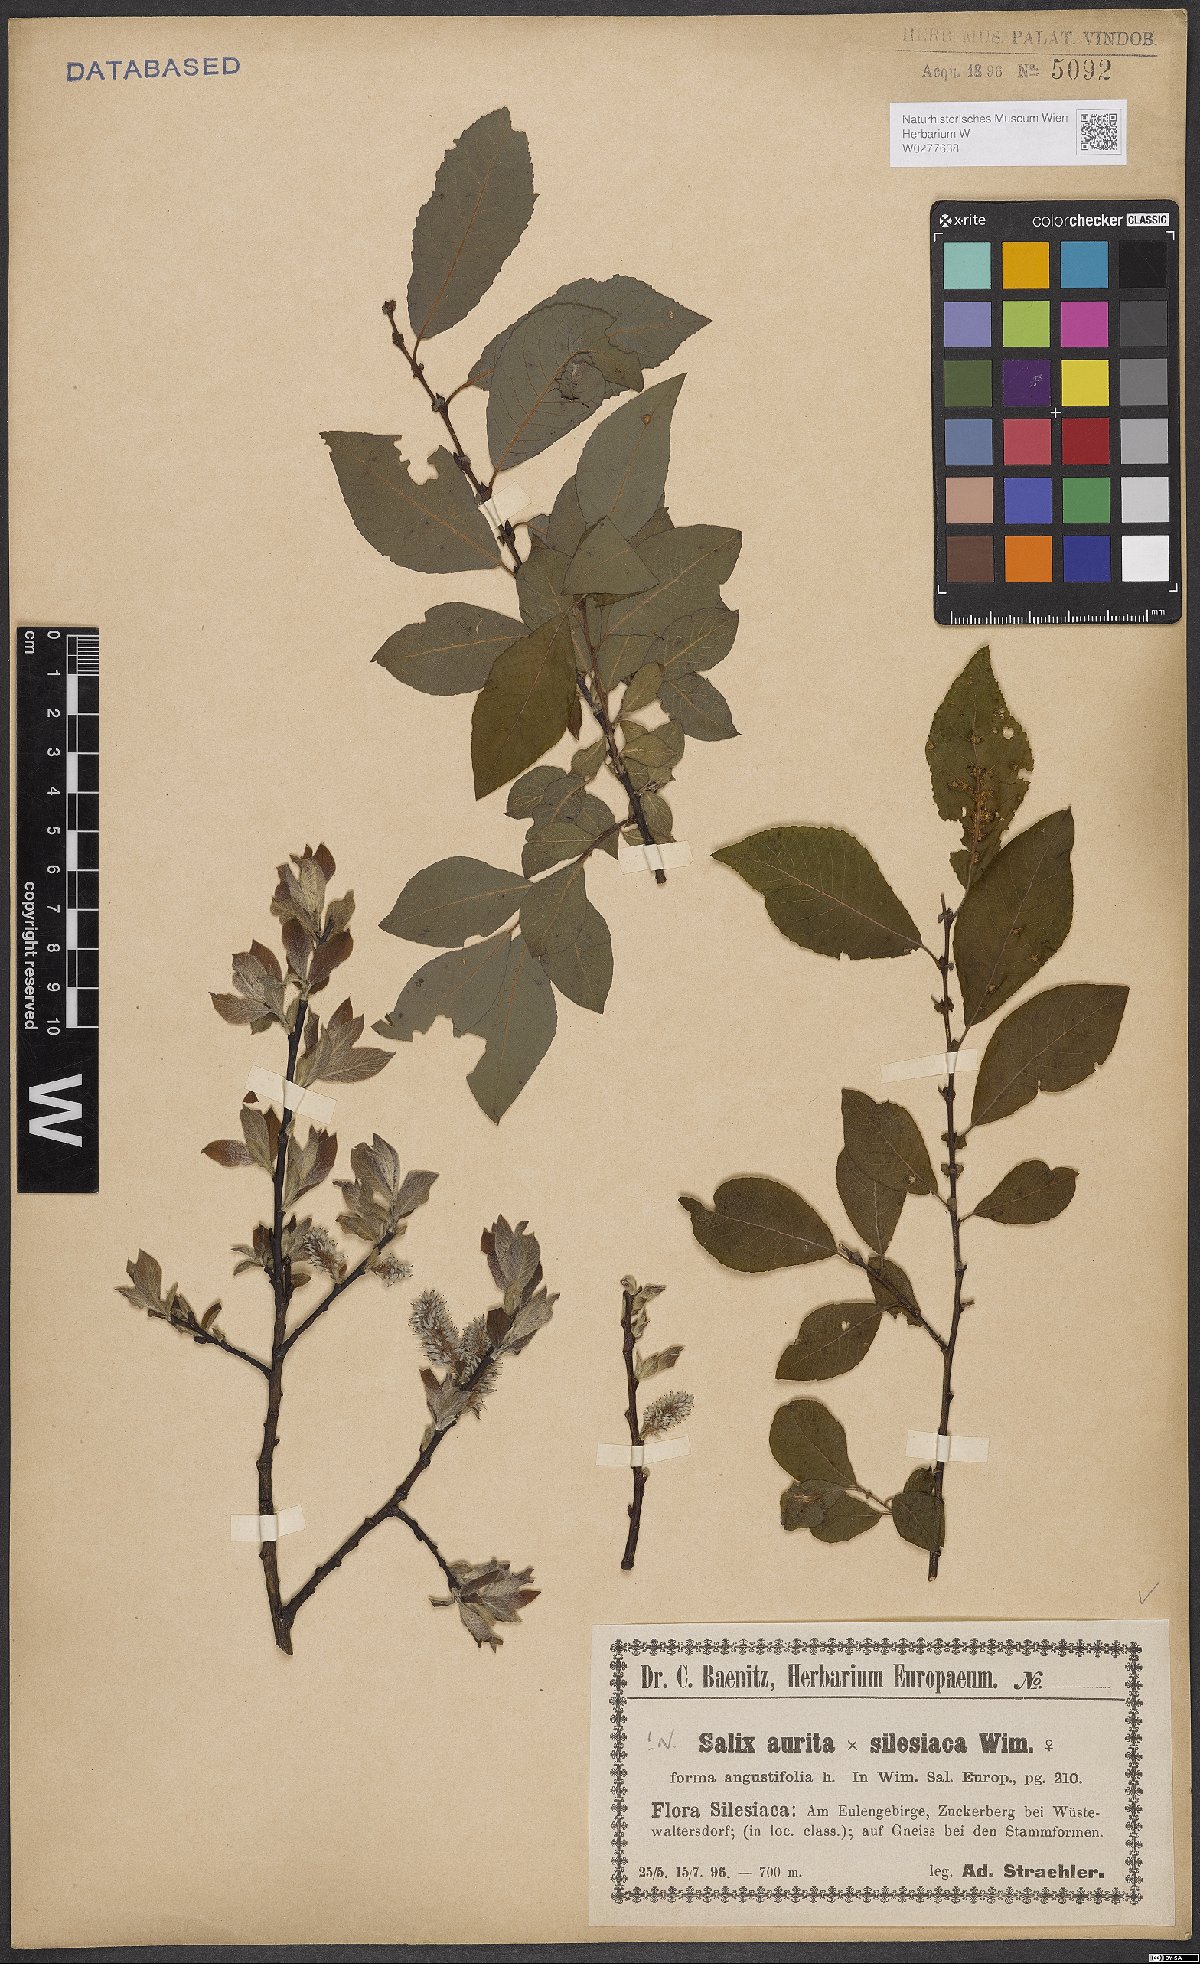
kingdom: Plantae
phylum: Tracheophyta
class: Magnoliopsida
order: Malpighiales
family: Salicaceae
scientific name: Salicaceae
